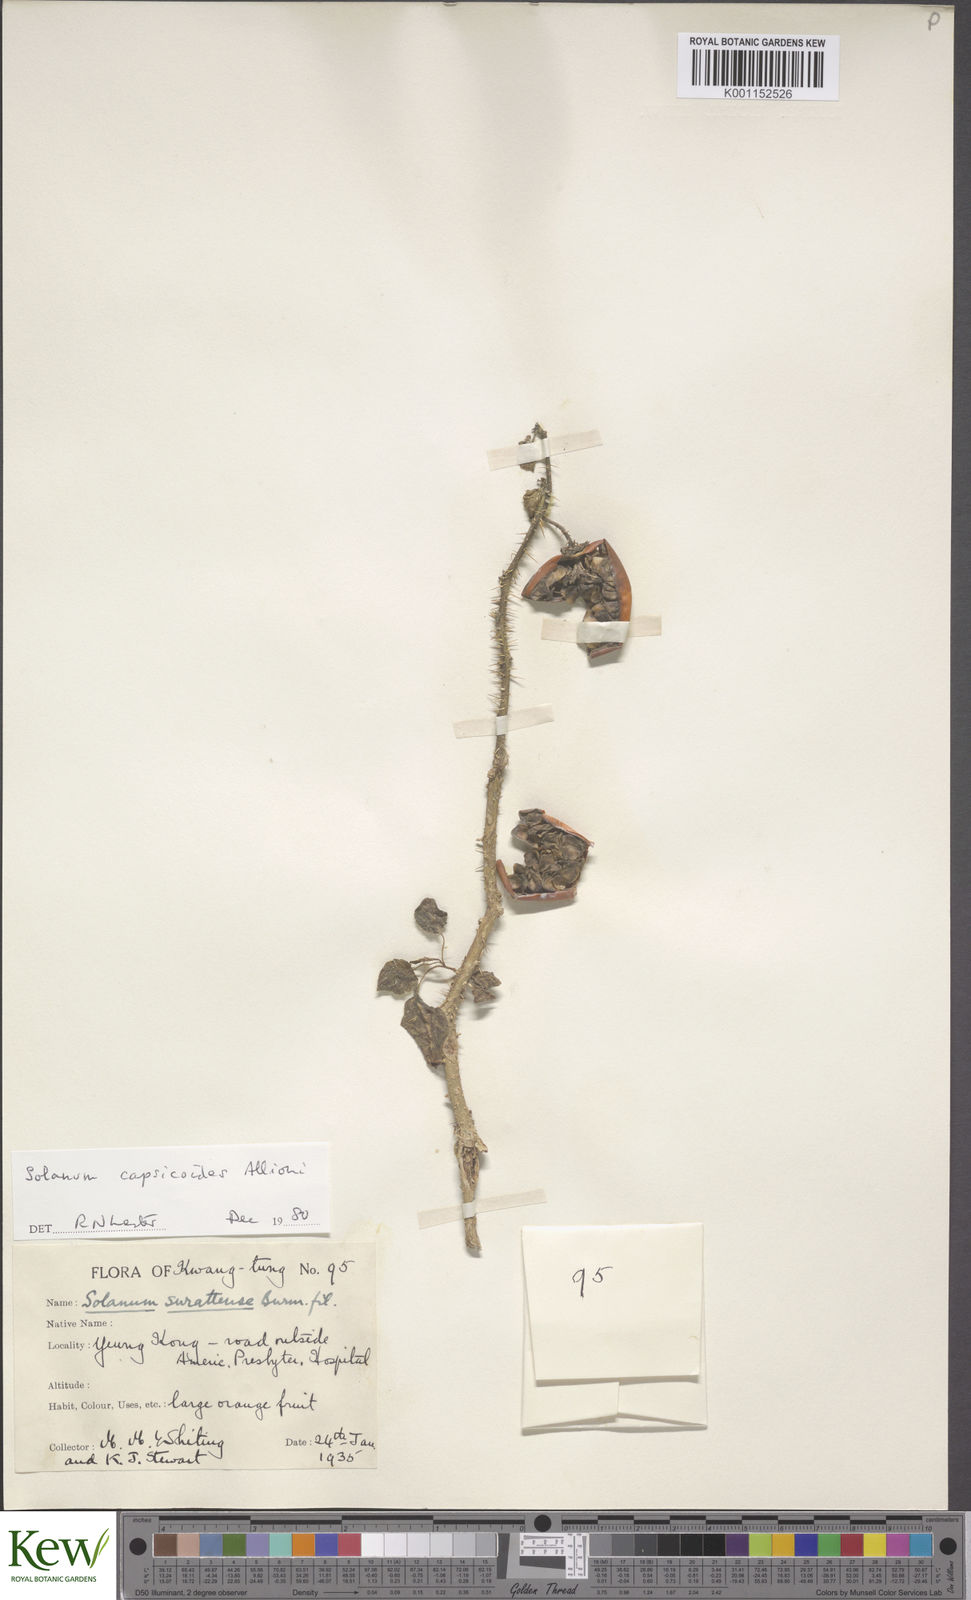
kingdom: Plantae
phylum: Tracheophyta
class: Magnoliopsida
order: Solanales
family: Solanaceae
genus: Solanum
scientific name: Solanum capsicoides
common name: Cockroach berry
